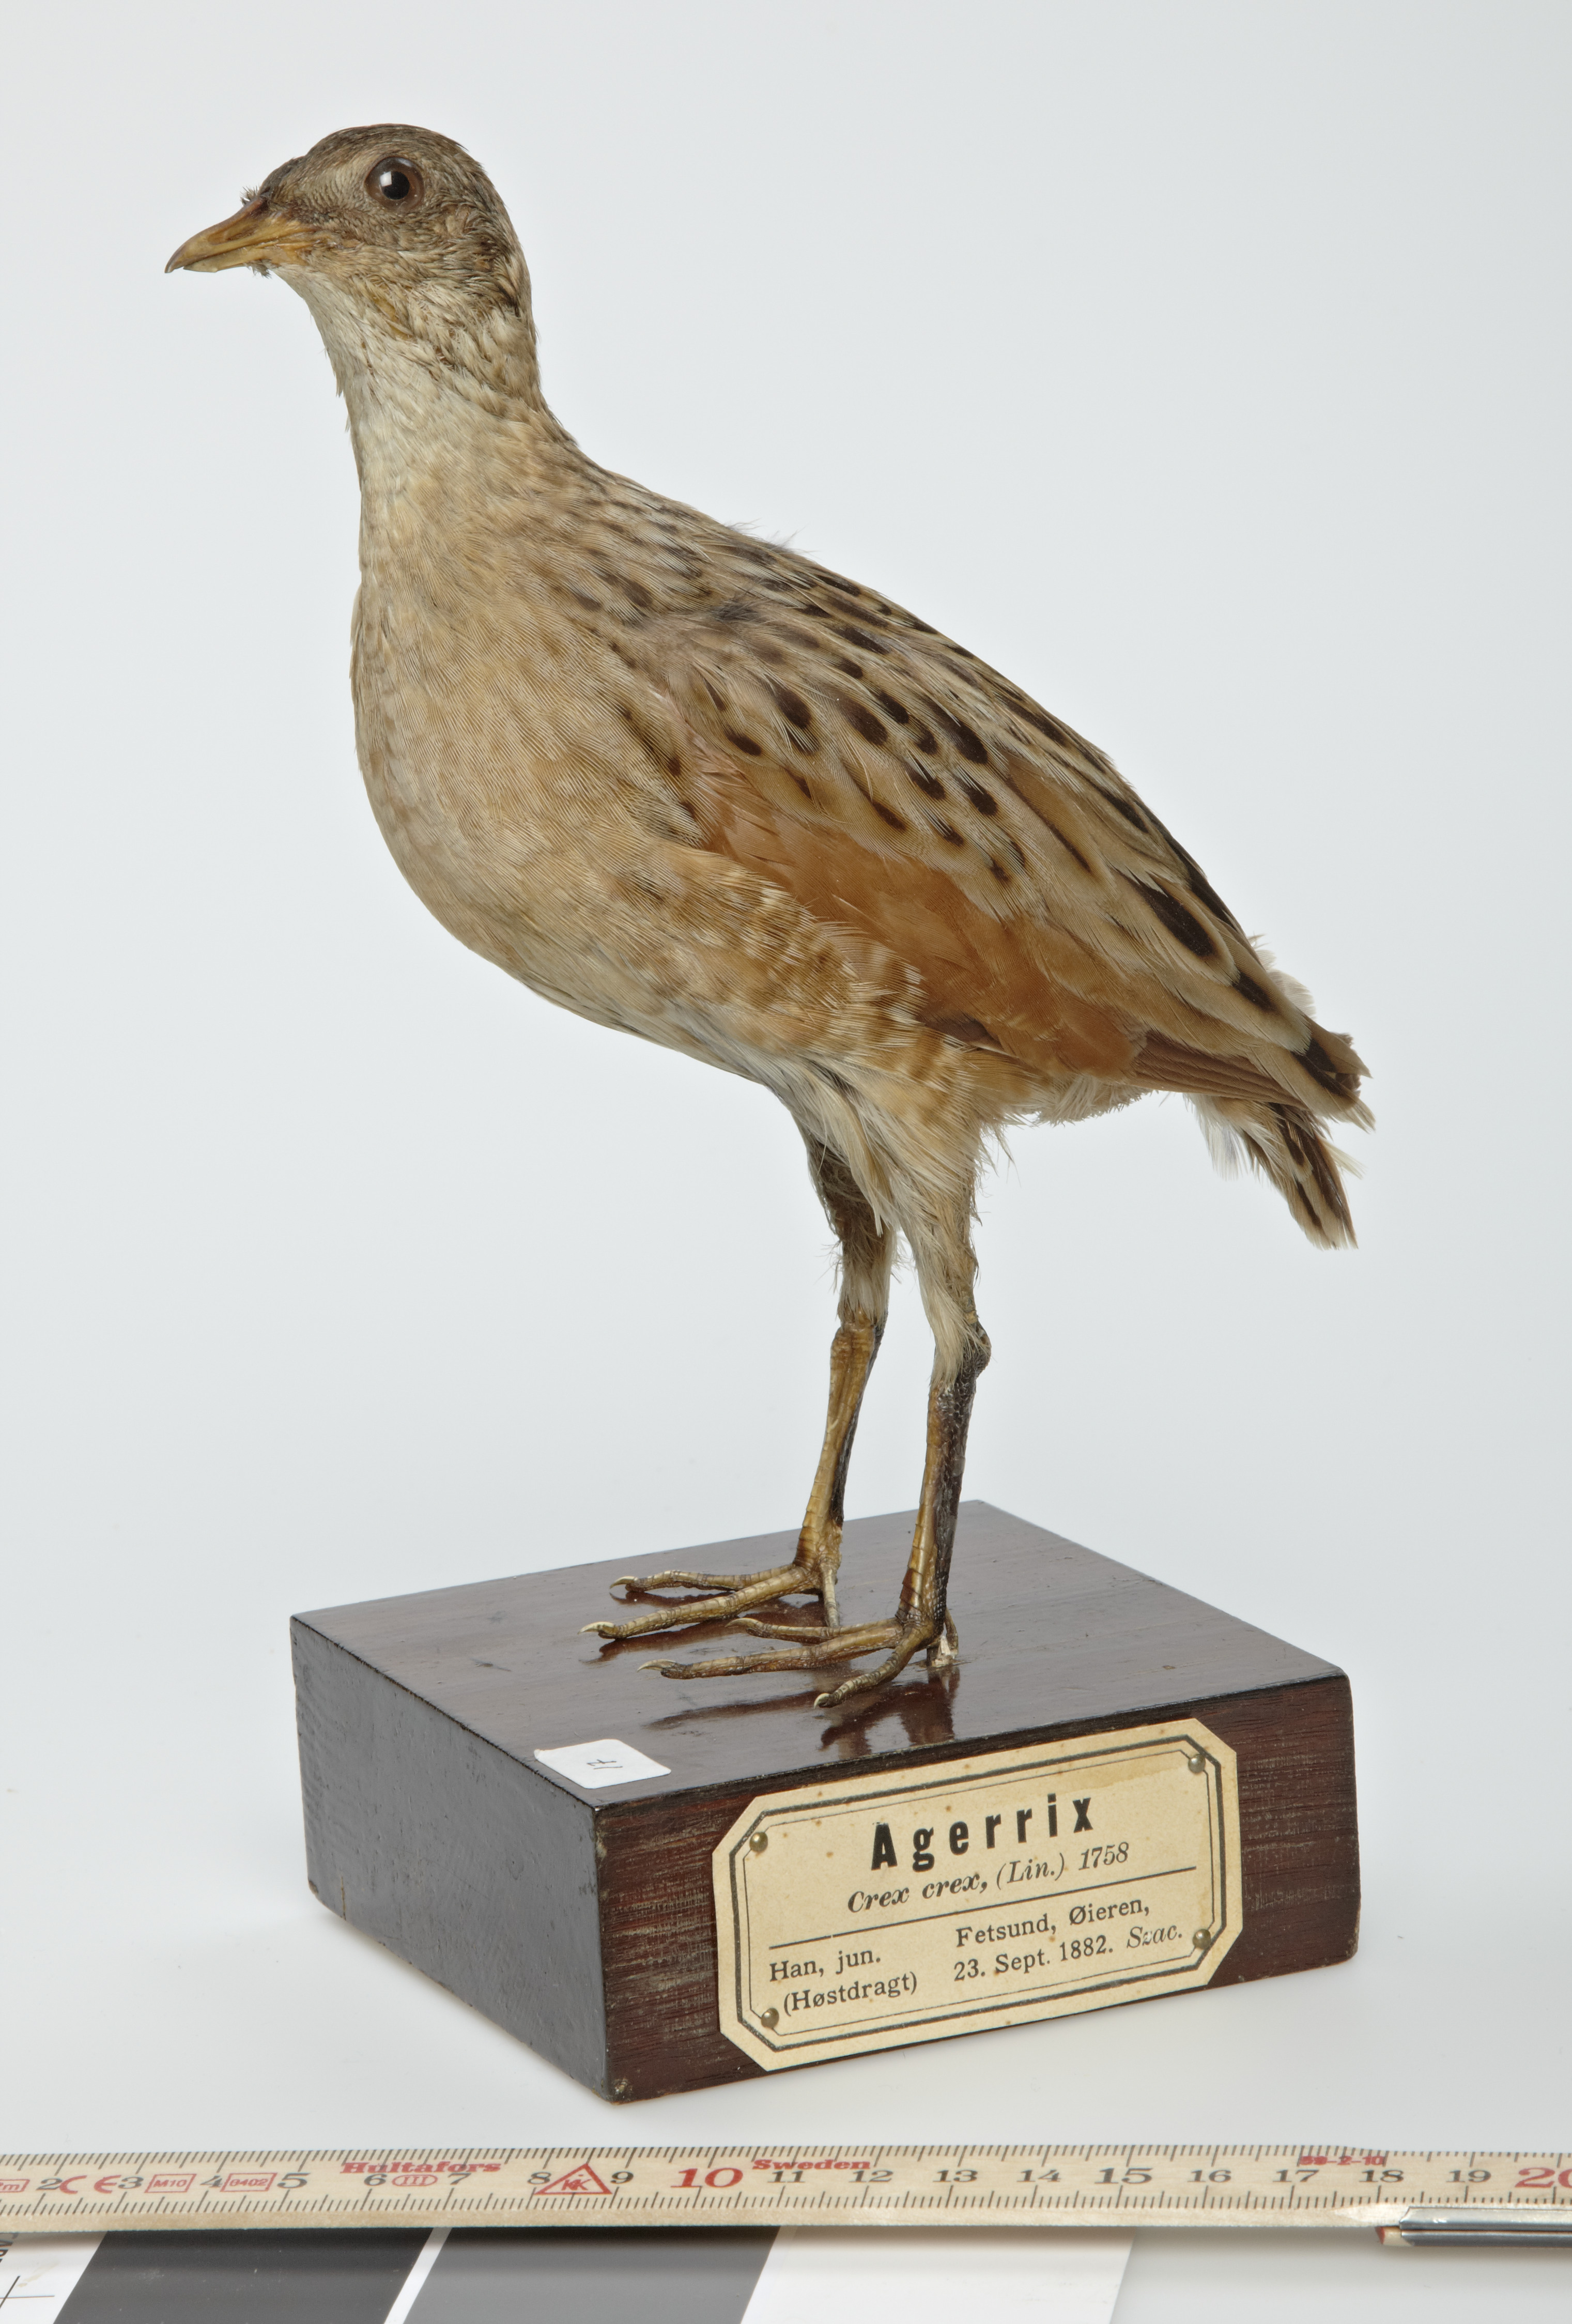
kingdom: Animalia
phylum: Chordata
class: Aves
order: Gruiformes
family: Rallidae
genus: Crex
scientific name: Crex crex
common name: Corn crake
